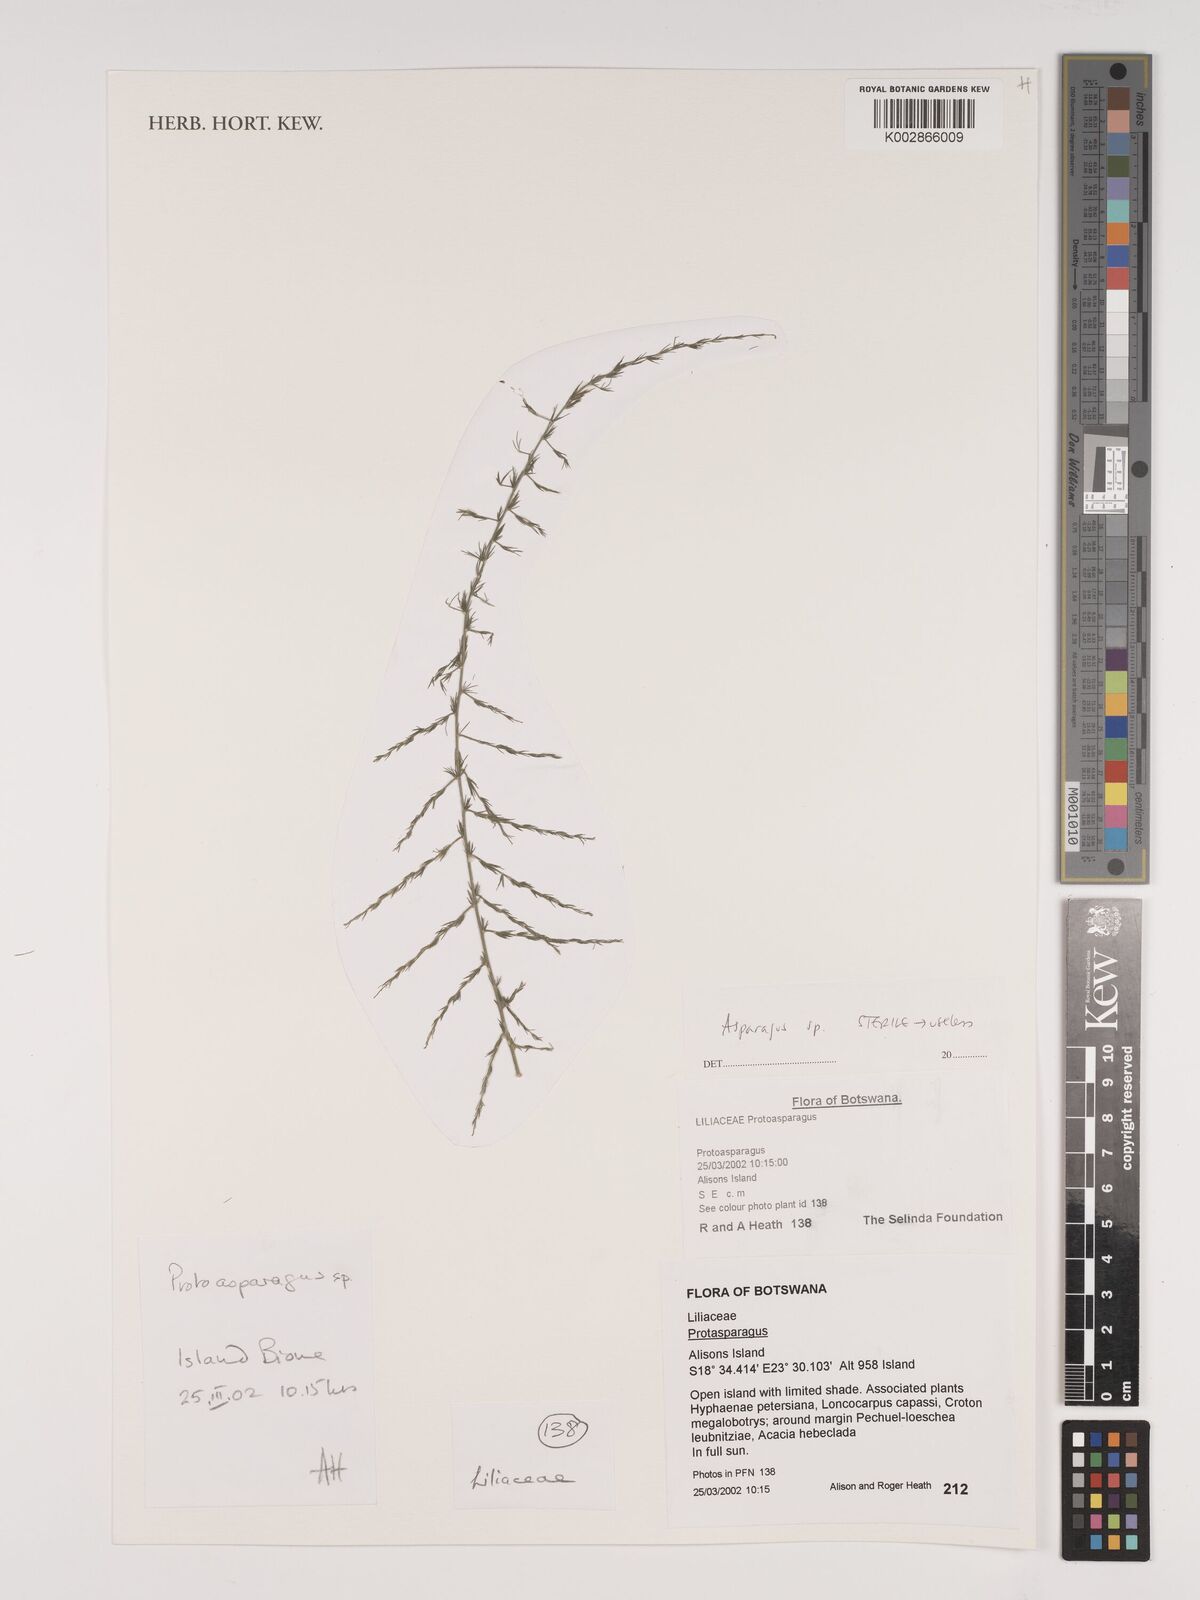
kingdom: Plantae
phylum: Tracheophyta
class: Liliopsida
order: Asparagales
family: Asparagaceae
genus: Asparagus
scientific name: Asparagus
